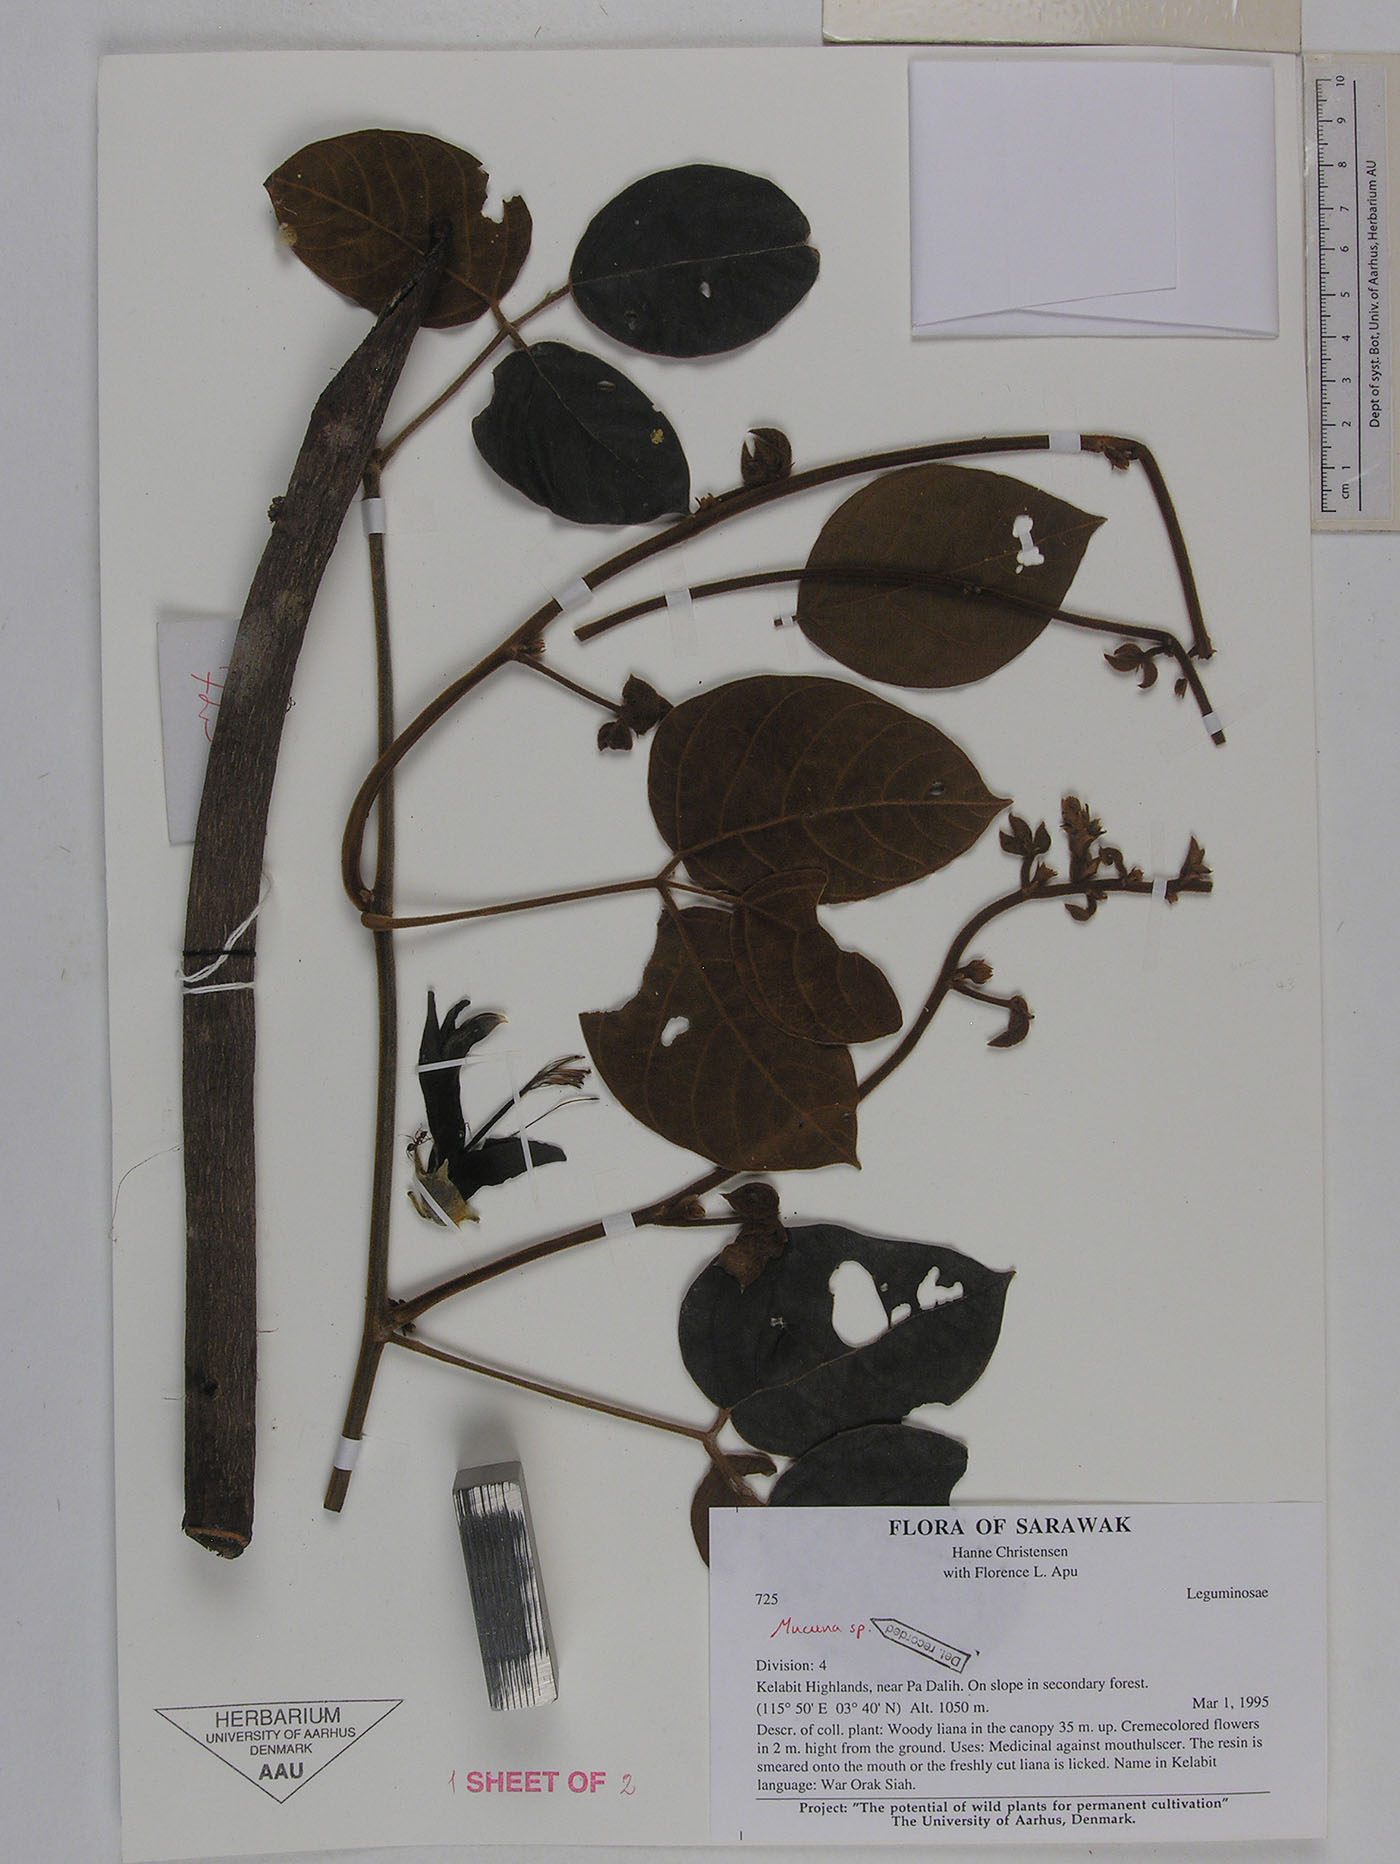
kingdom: Plantae
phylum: Tracheophyta
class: Magnoliopsida
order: Fabales
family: Fabaceae
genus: Mucuna
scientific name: Mucuna elmeri
